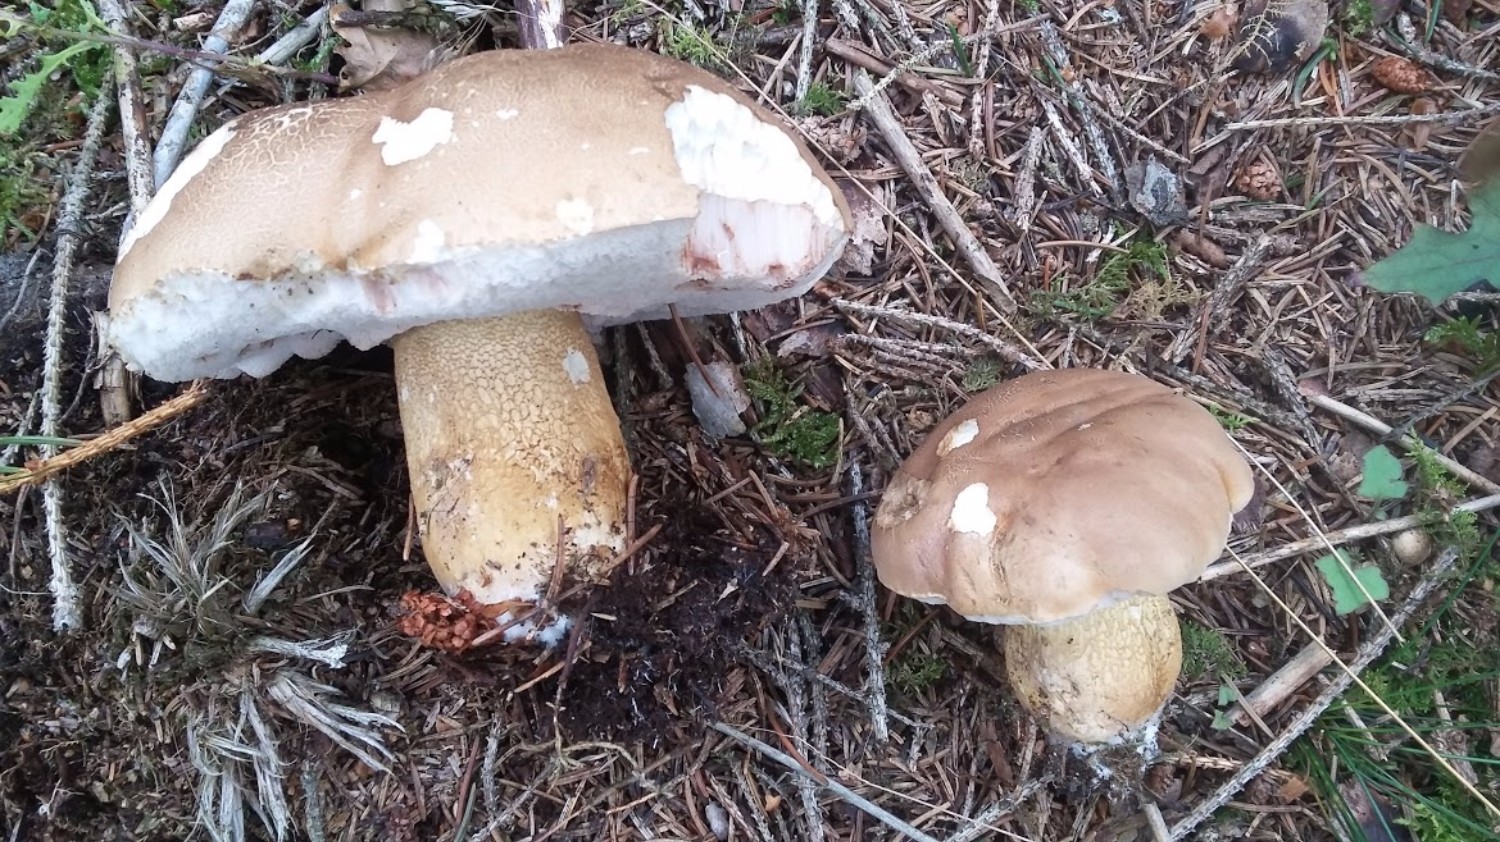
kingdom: Fungi
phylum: Basidiomycota
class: Agaricomycetes
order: Boletales
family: Boletaceae
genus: Tylopilus
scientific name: Tylopilus felleus
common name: galderørhat
